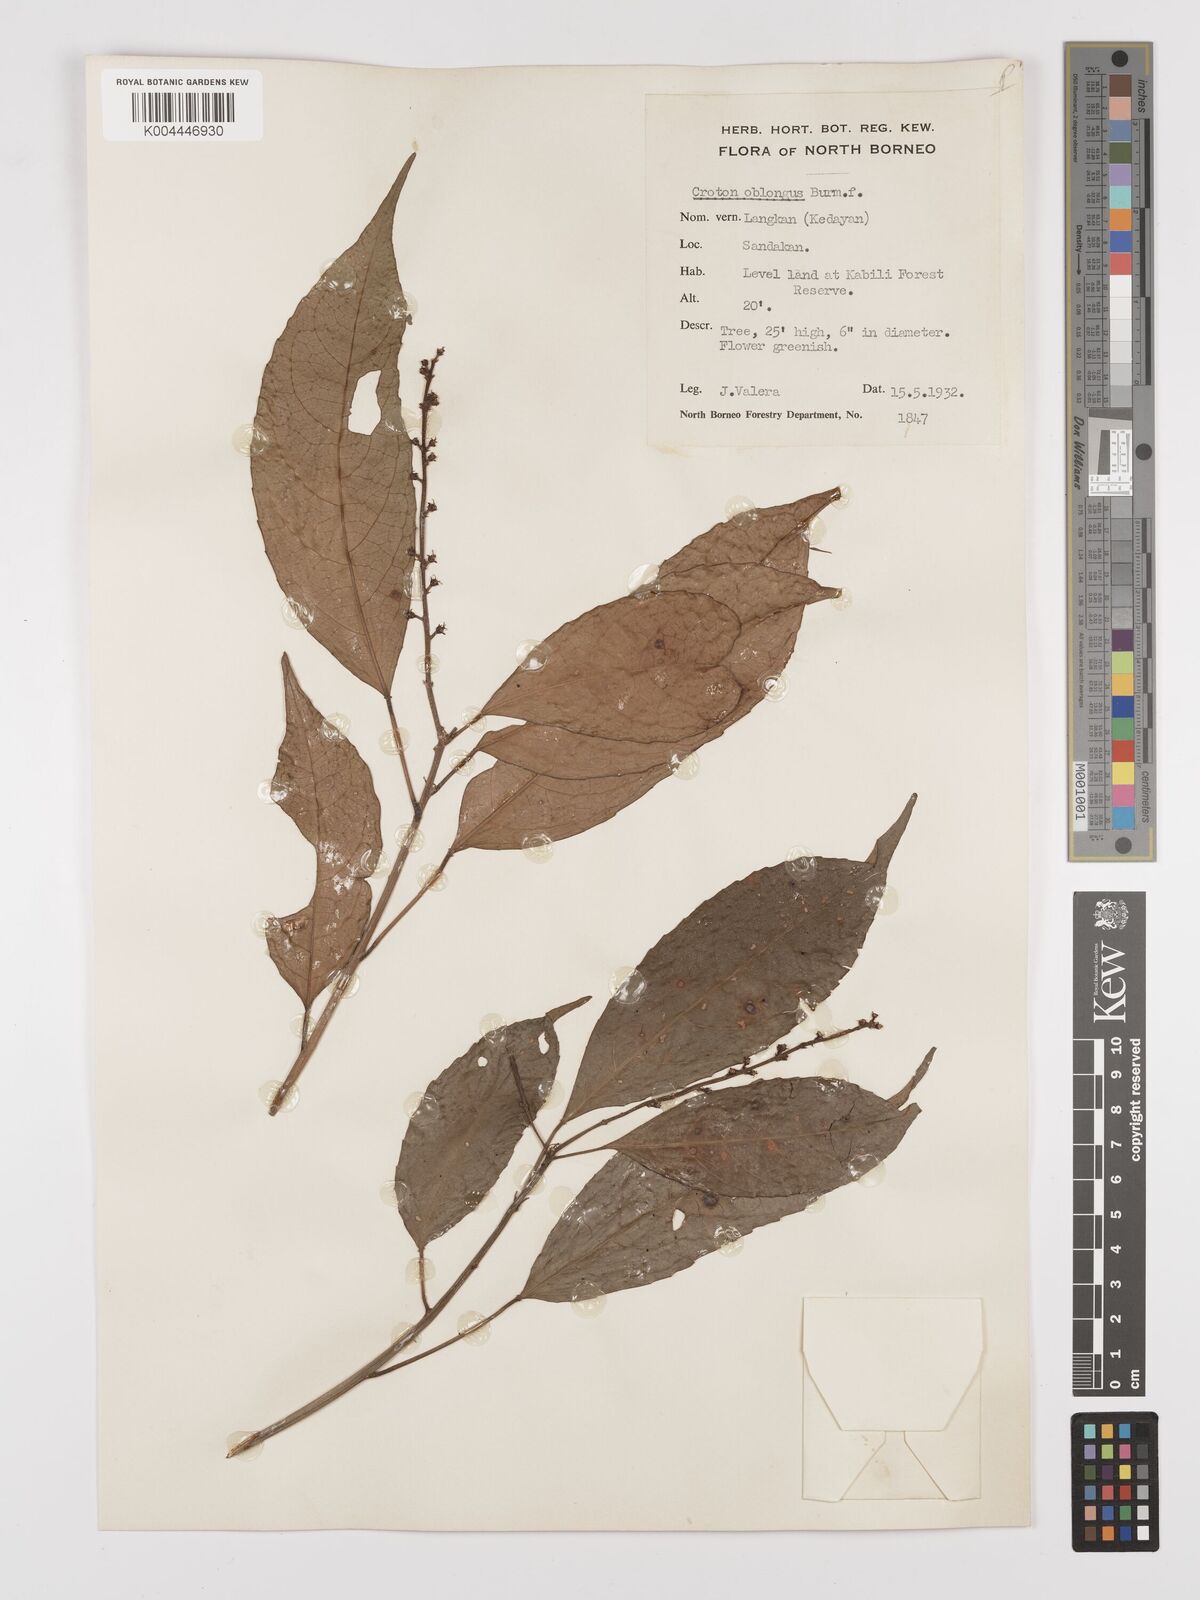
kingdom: Plantae
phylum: Tracheophyta
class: Magnoliopsida
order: Malpighiales
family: Euphorbiaceae
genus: Croton
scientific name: Croton oblongus
